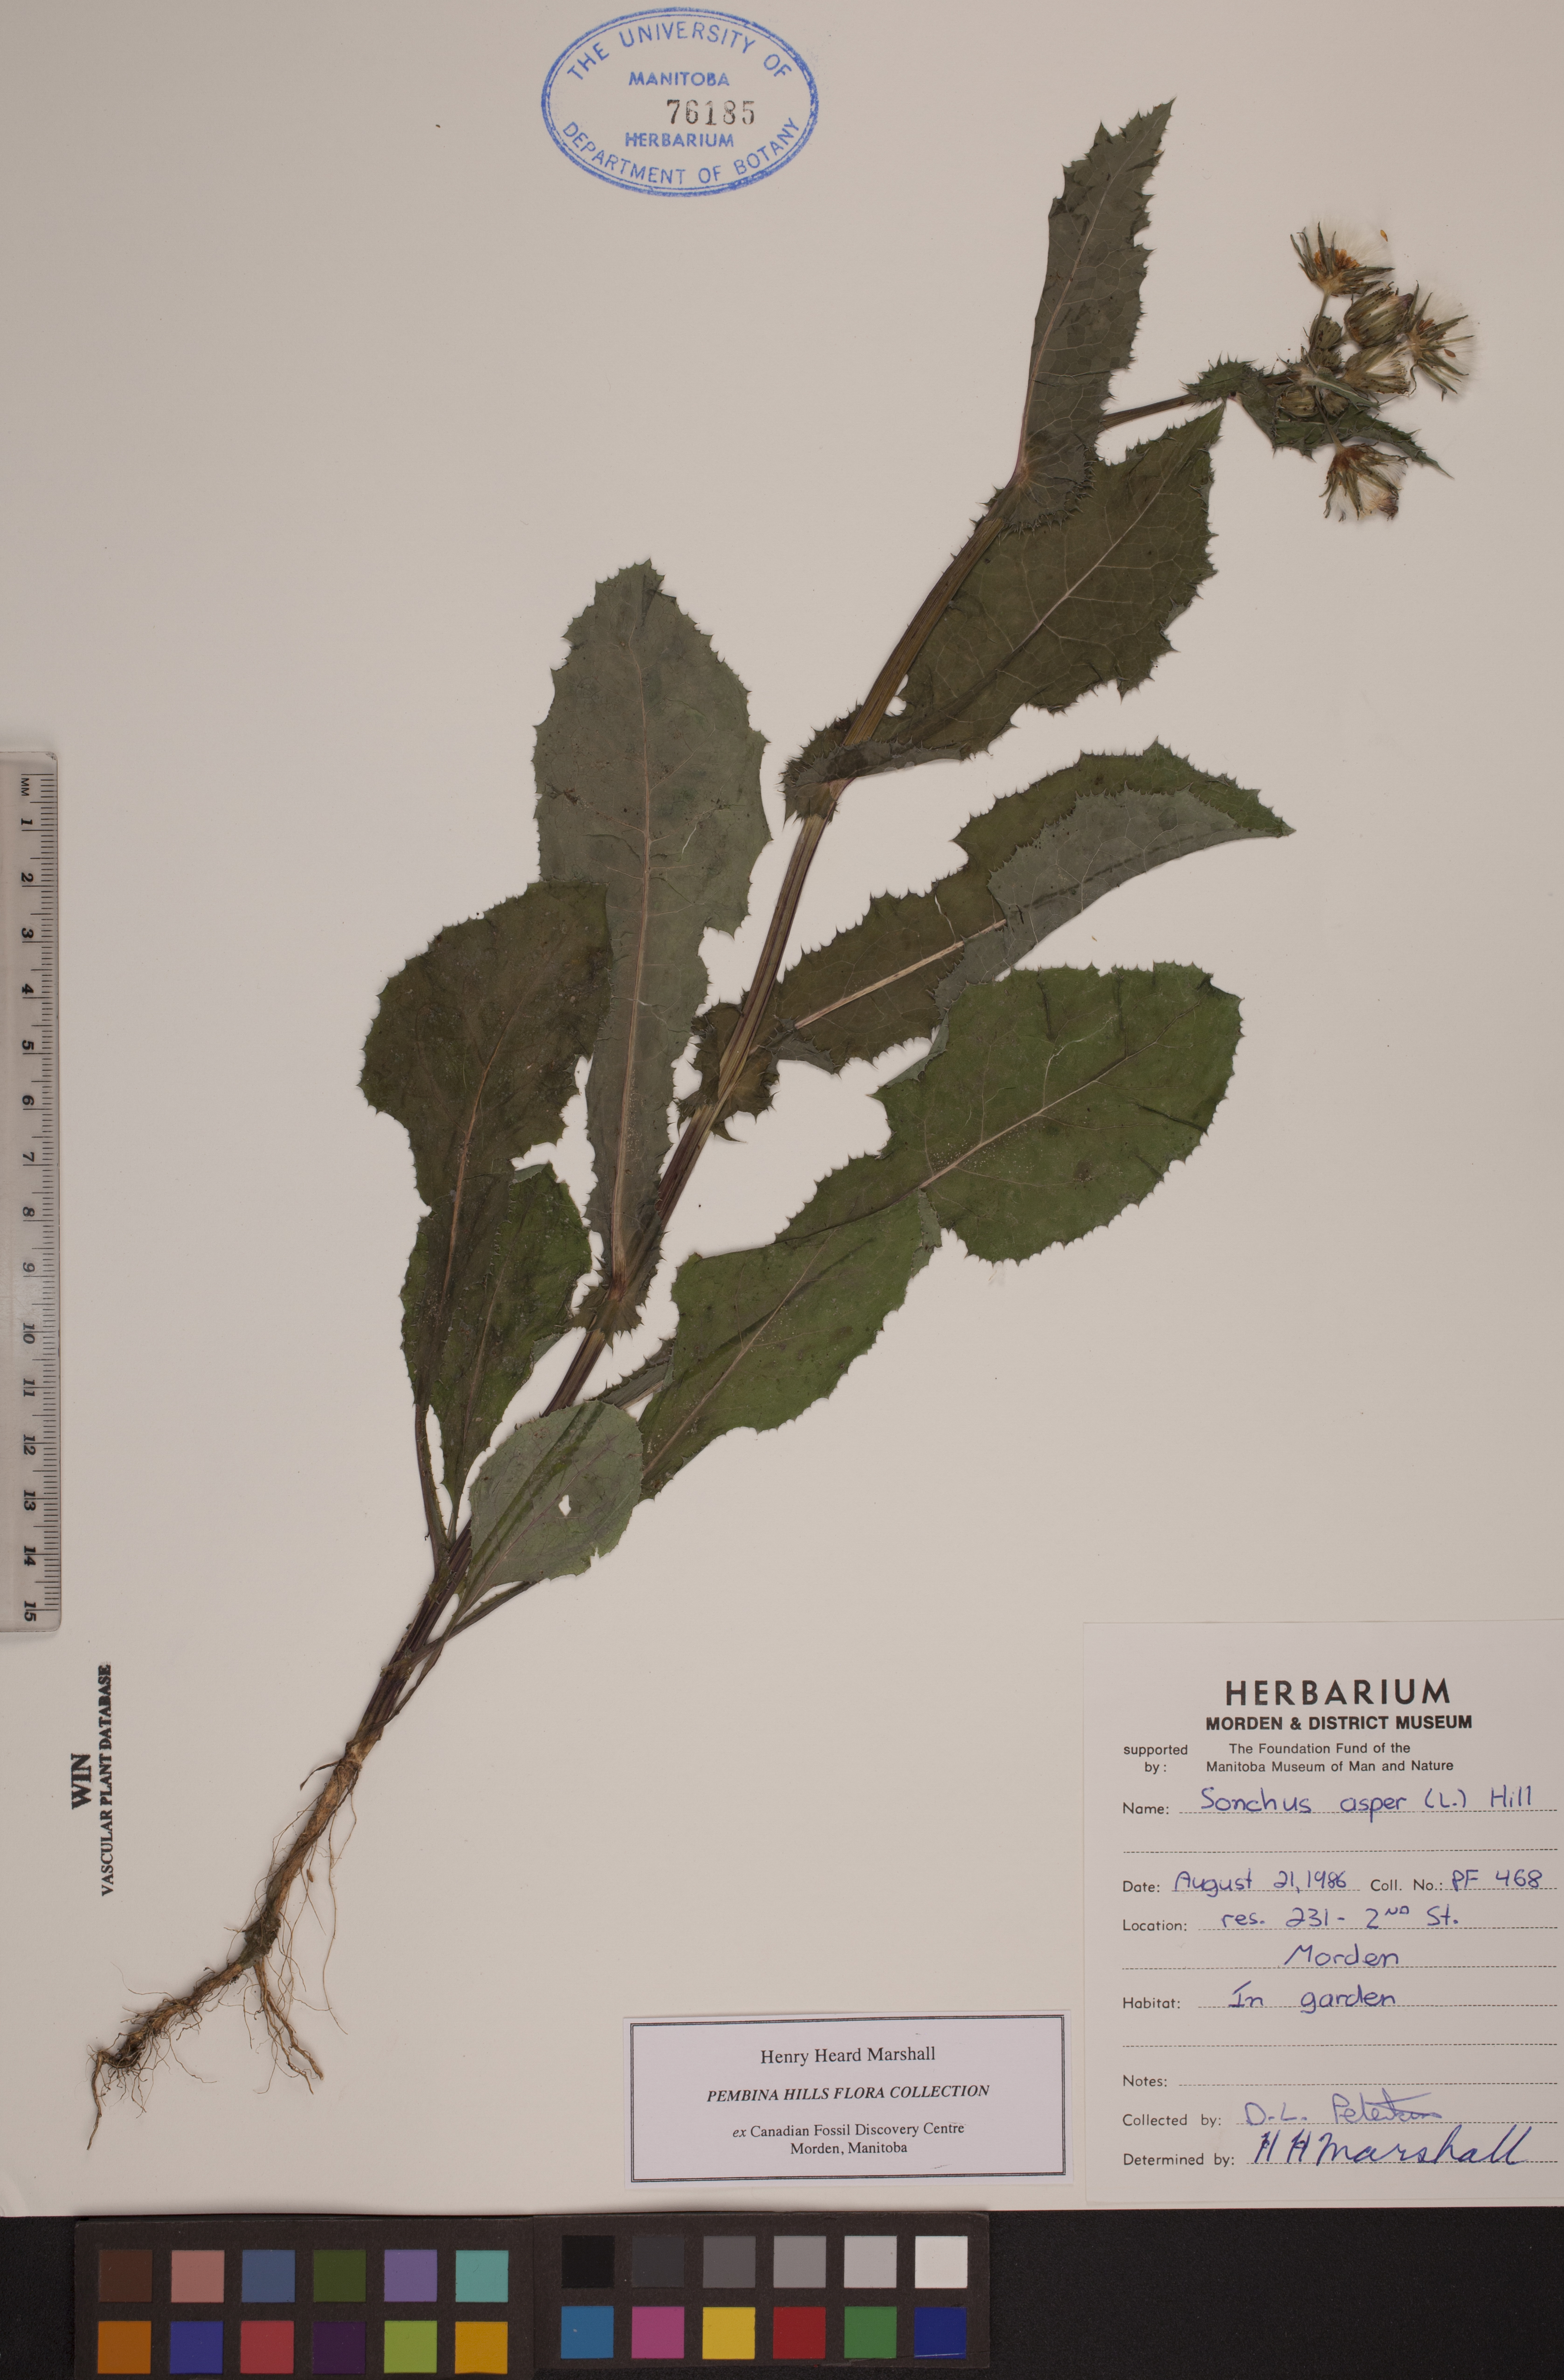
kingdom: Plantae
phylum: Tracheophyta
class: Magnoliopsida
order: Asterales
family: Asteraceae
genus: Sonchus
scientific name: Sonchus asper
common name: Prickly sow-thistle
